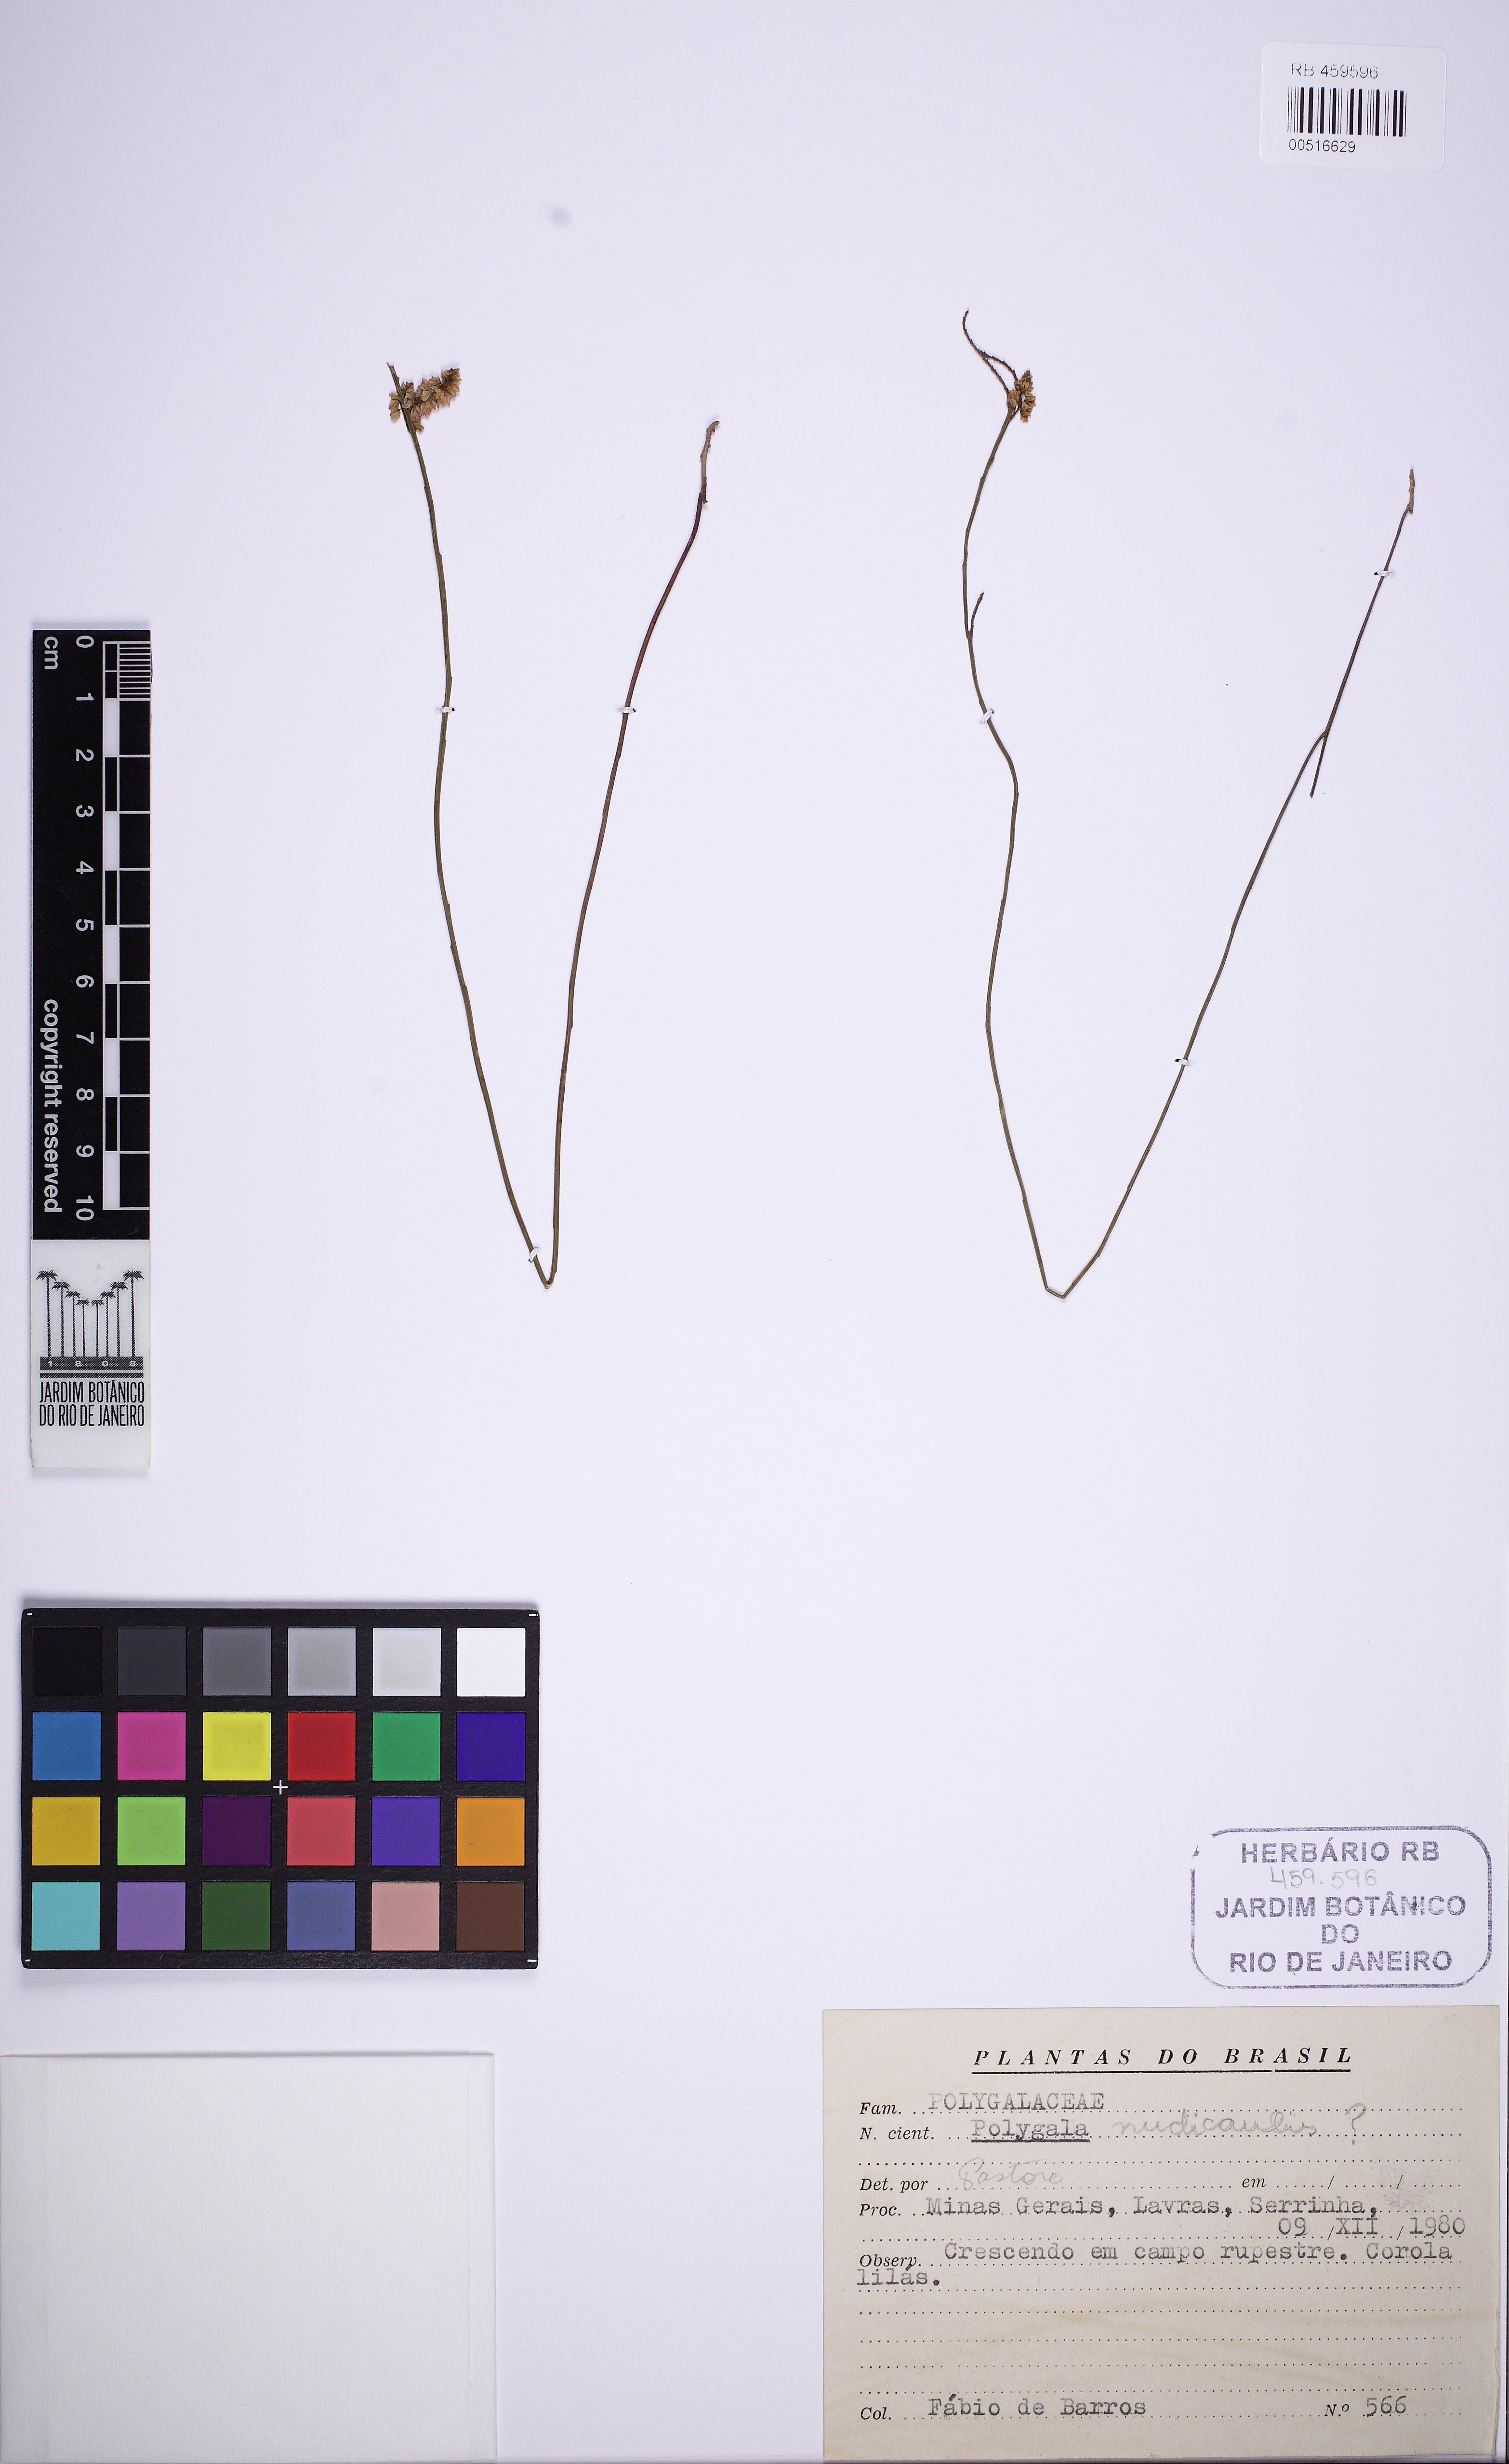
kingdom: Plantae
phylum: Tracheophyta
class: Magnoliopsida
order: Fabales
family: Polygalaceae
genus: Polygala
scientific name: Polygala nudicaulis
